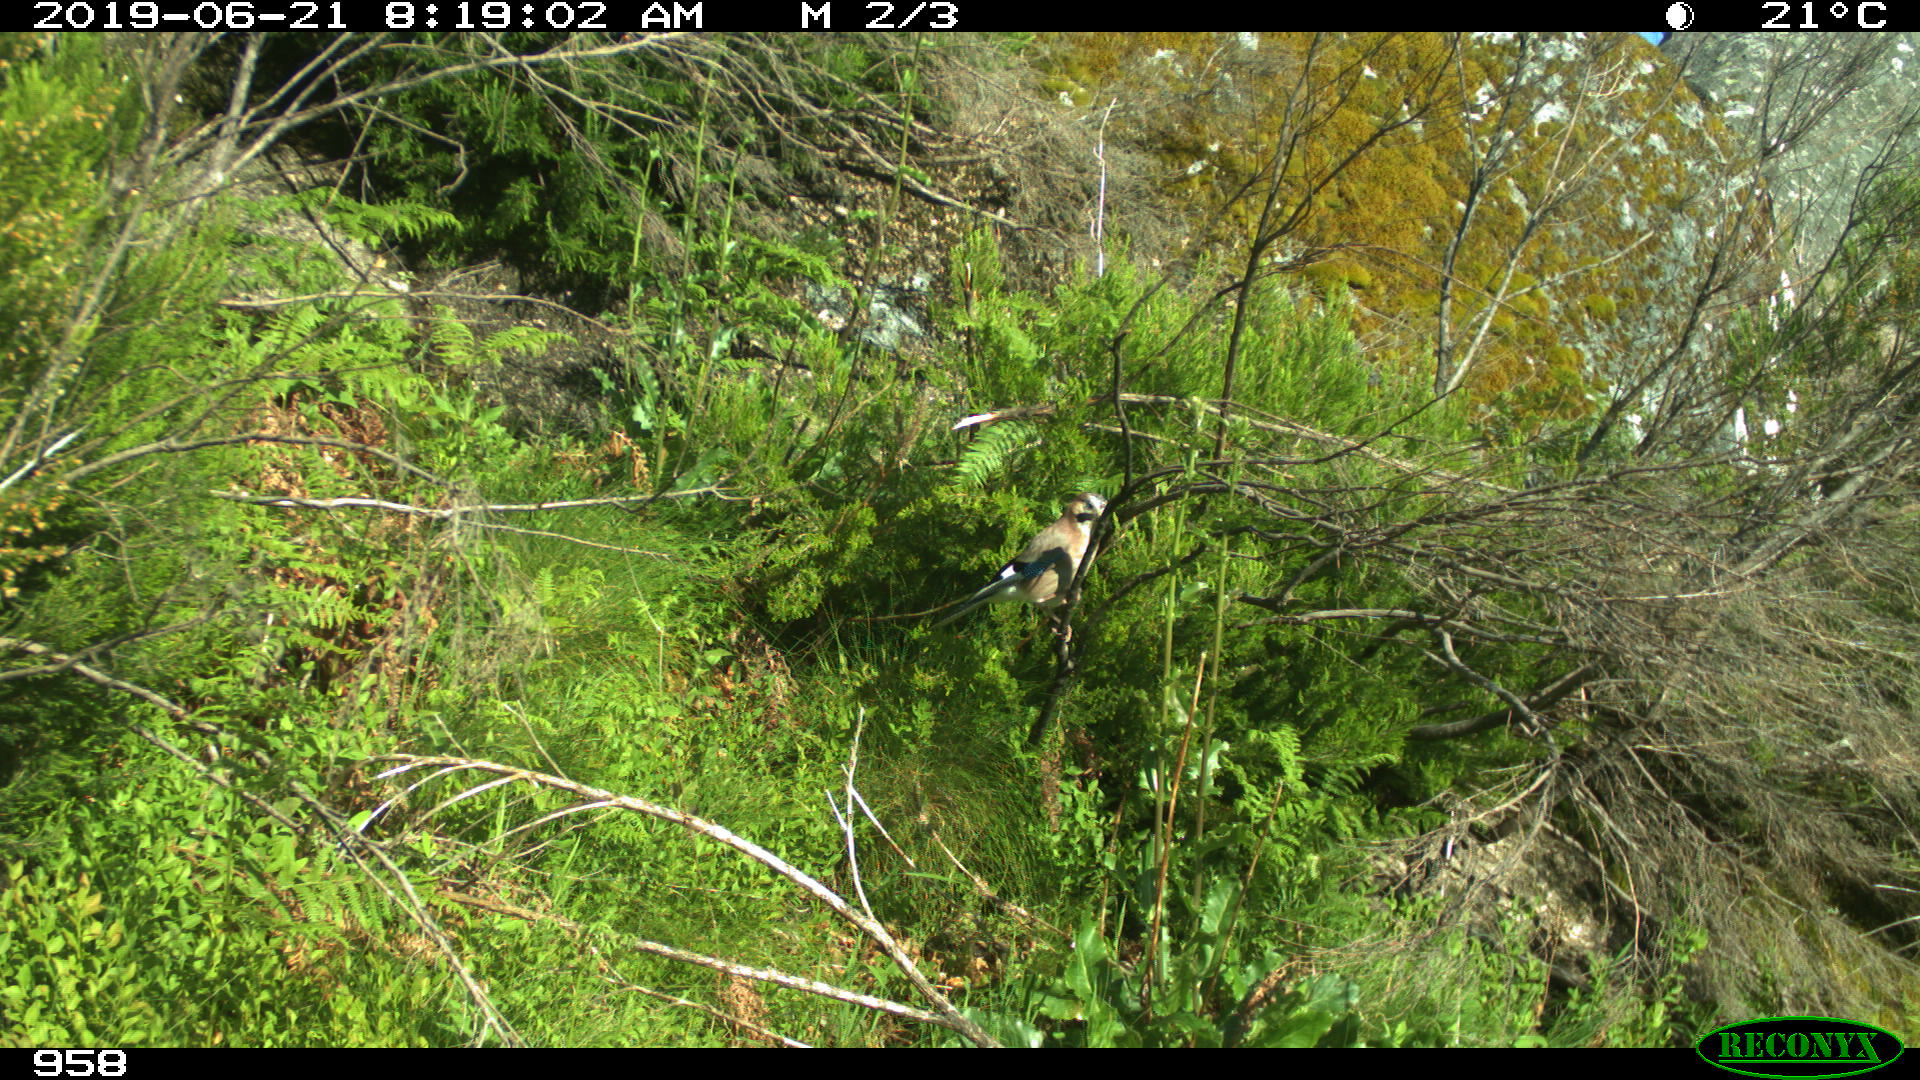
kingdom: Animalia
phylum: Chordata
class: Aves
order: Passeriformes
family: Corvidae
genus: Garrulus
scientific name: Garrulus glandarius
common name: Eurasian jay
